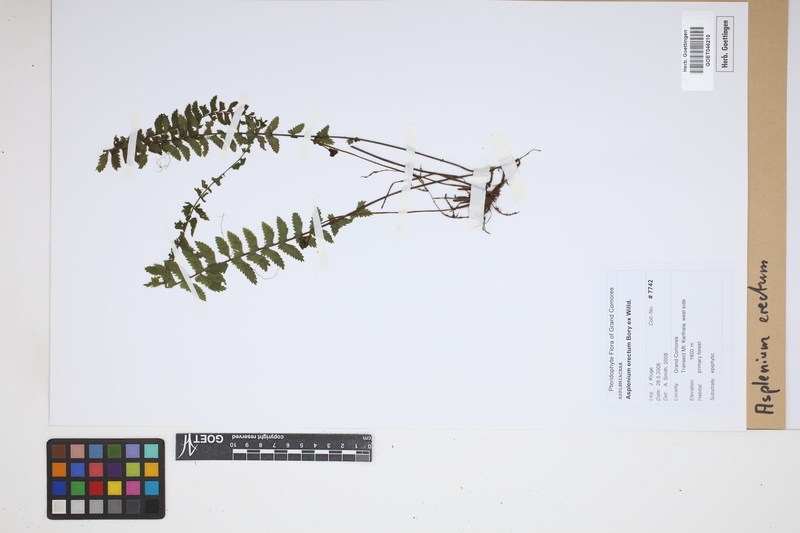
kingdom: Plantae
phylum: Tracheophyta
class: Polypodiopsida
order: Polypodiales
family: Aspleniaceae
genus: Asplenium
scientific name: Asplenium erectum
